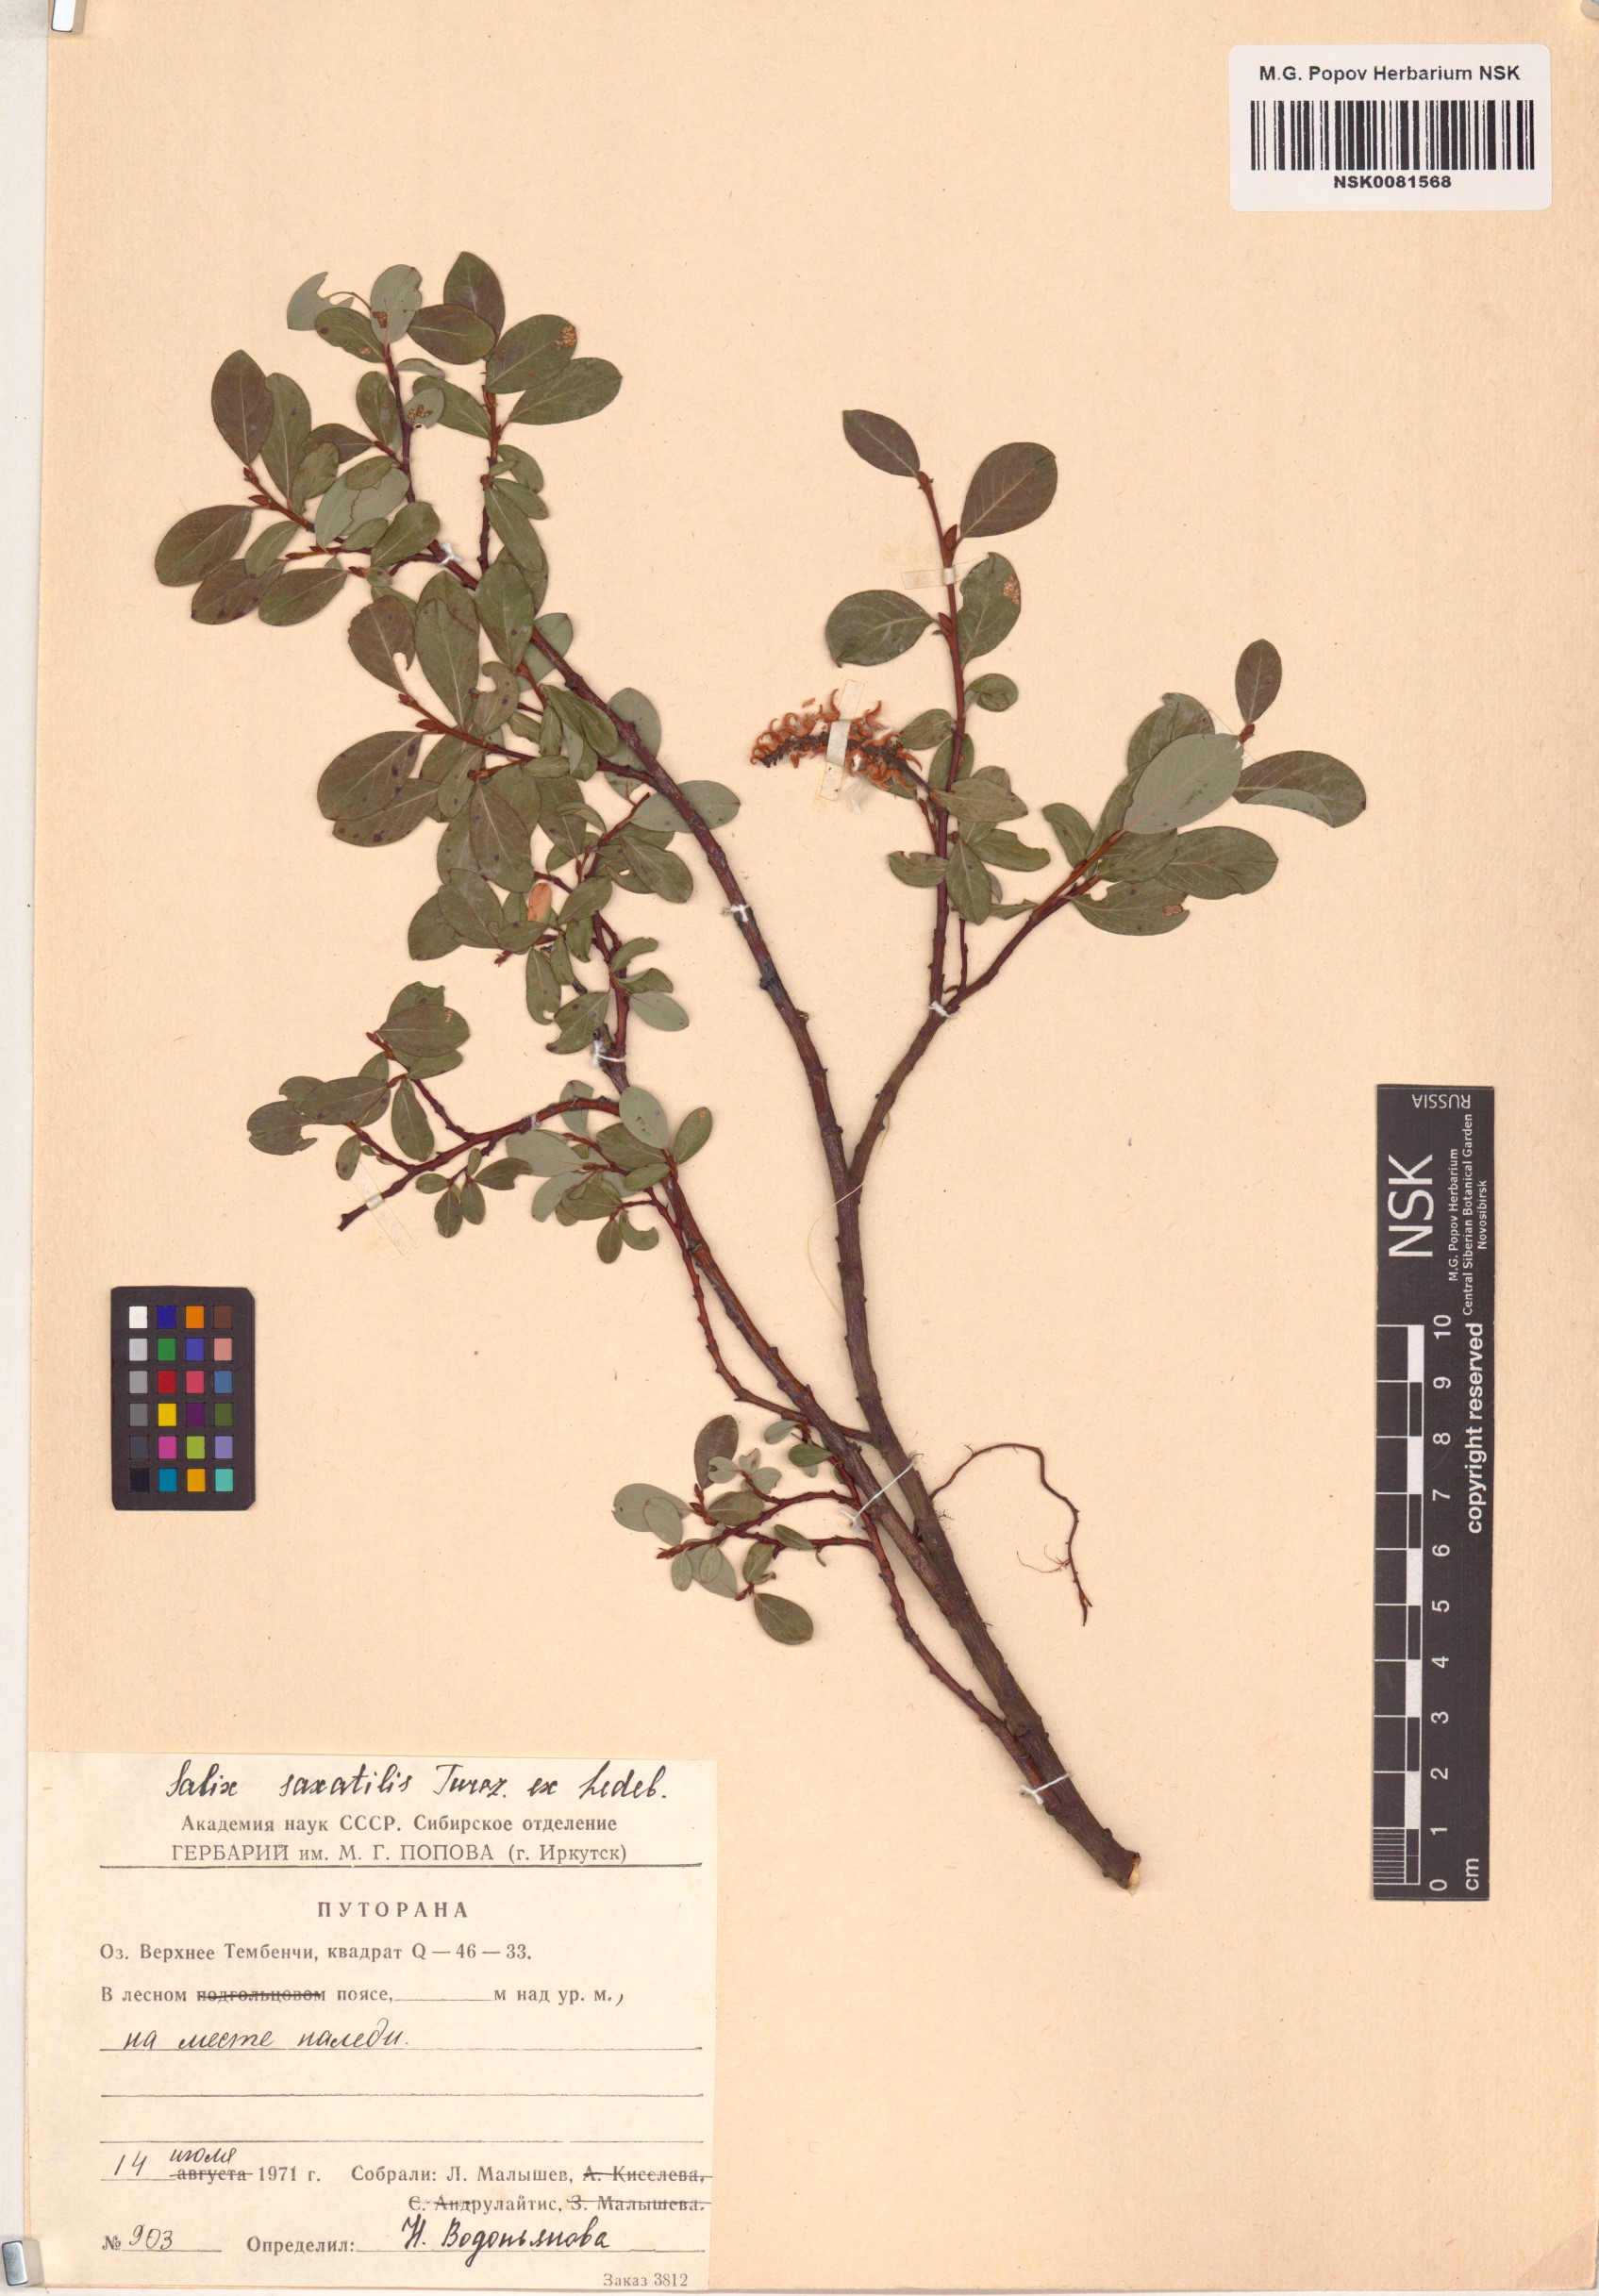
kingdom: Plantae
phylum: Tracheophyta
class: Magnoliopsida
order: Malpighiales
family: Salicaceae
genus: Salix
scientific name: Salix saxatilis
